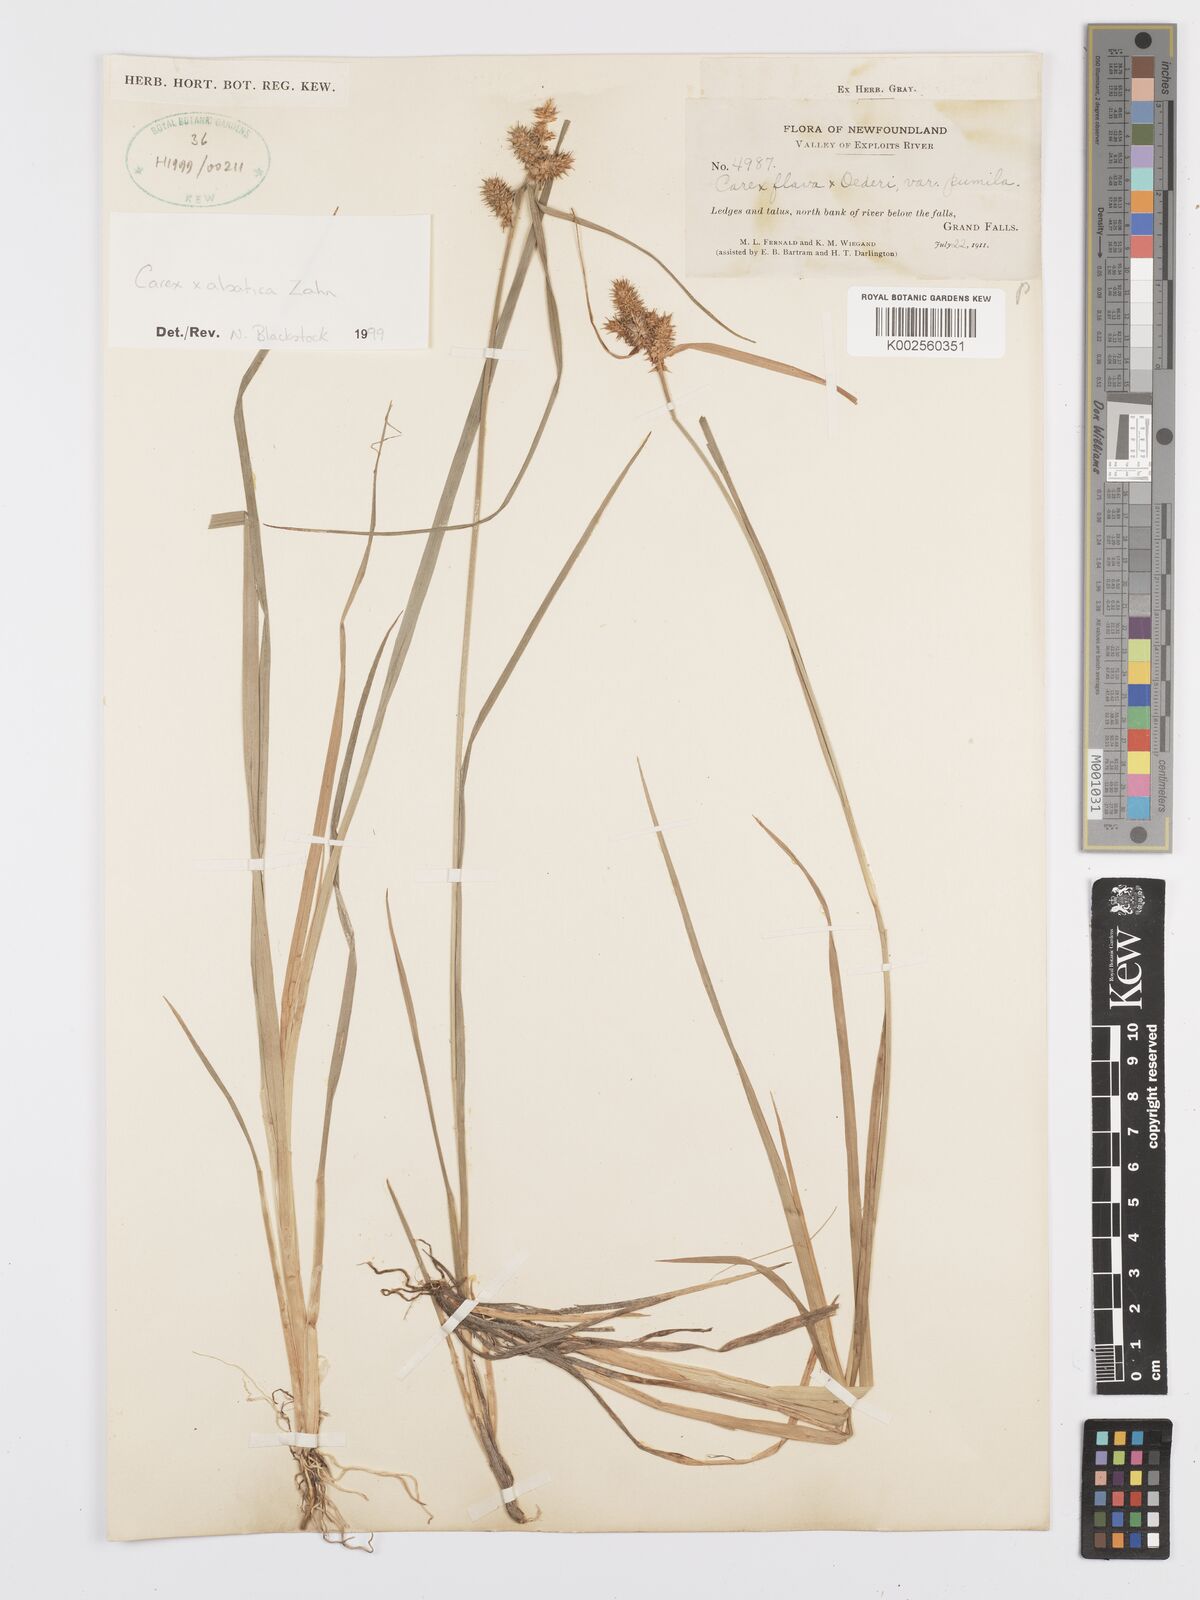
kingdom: Plantae
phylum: Tracheophyta
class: Liliopsida
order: Poales
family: Cyperaceae
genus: Carex
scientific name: Carex alsatica
